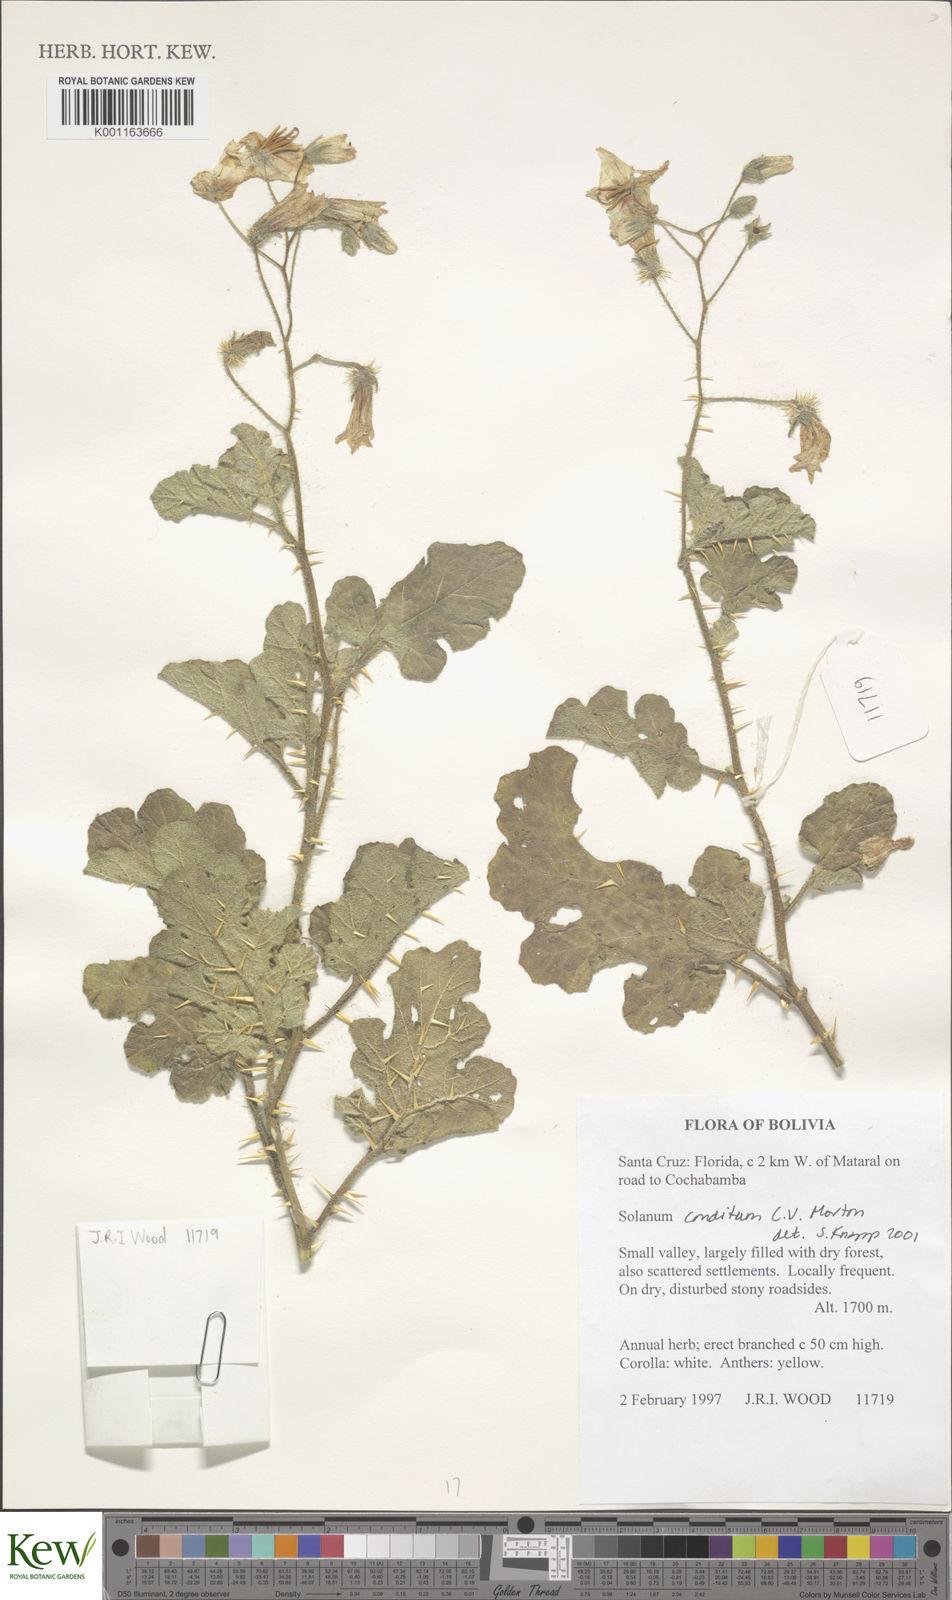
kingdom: Plantae
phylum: Tracheophyta
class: Magnoliopsida
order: Solanales
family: Solanaceae
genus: Solanum
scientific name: Solanum aridum
